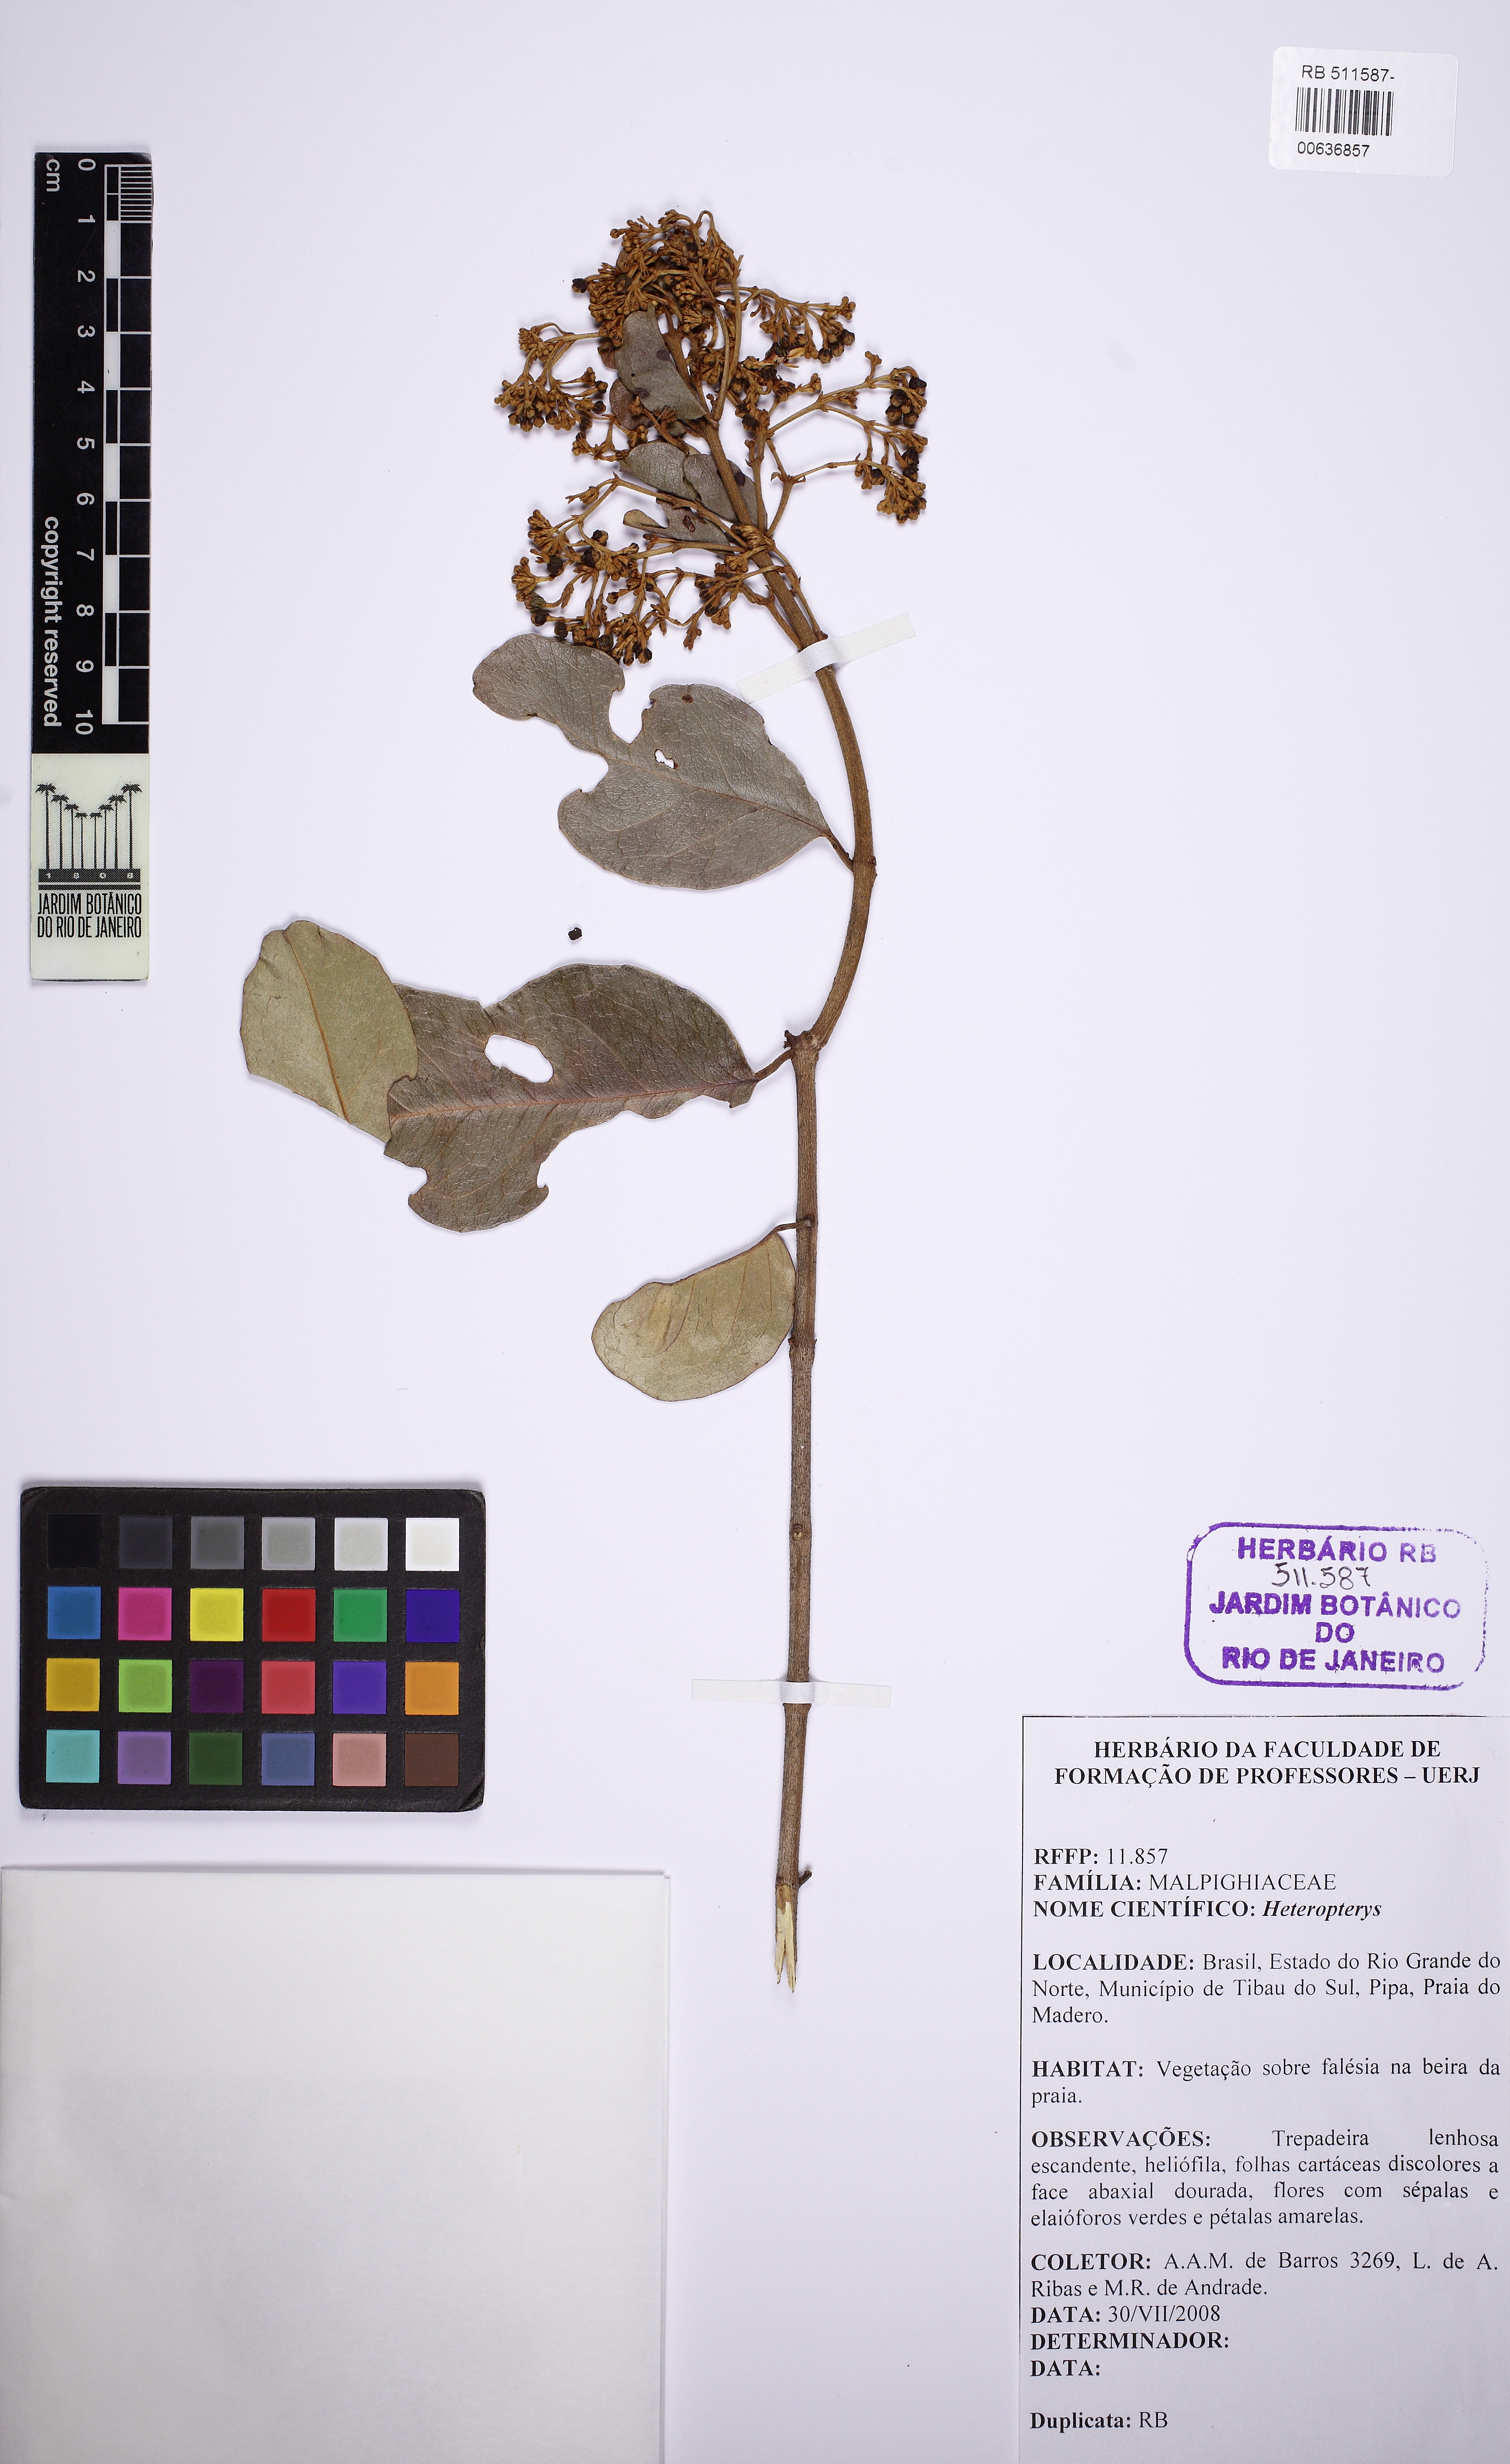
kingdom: Plantae
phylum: Tracheophyta
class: Magnoliopsida
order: Malpighiales
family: Malpighiaceae
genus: Heteropterys
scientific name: Heteropterys
